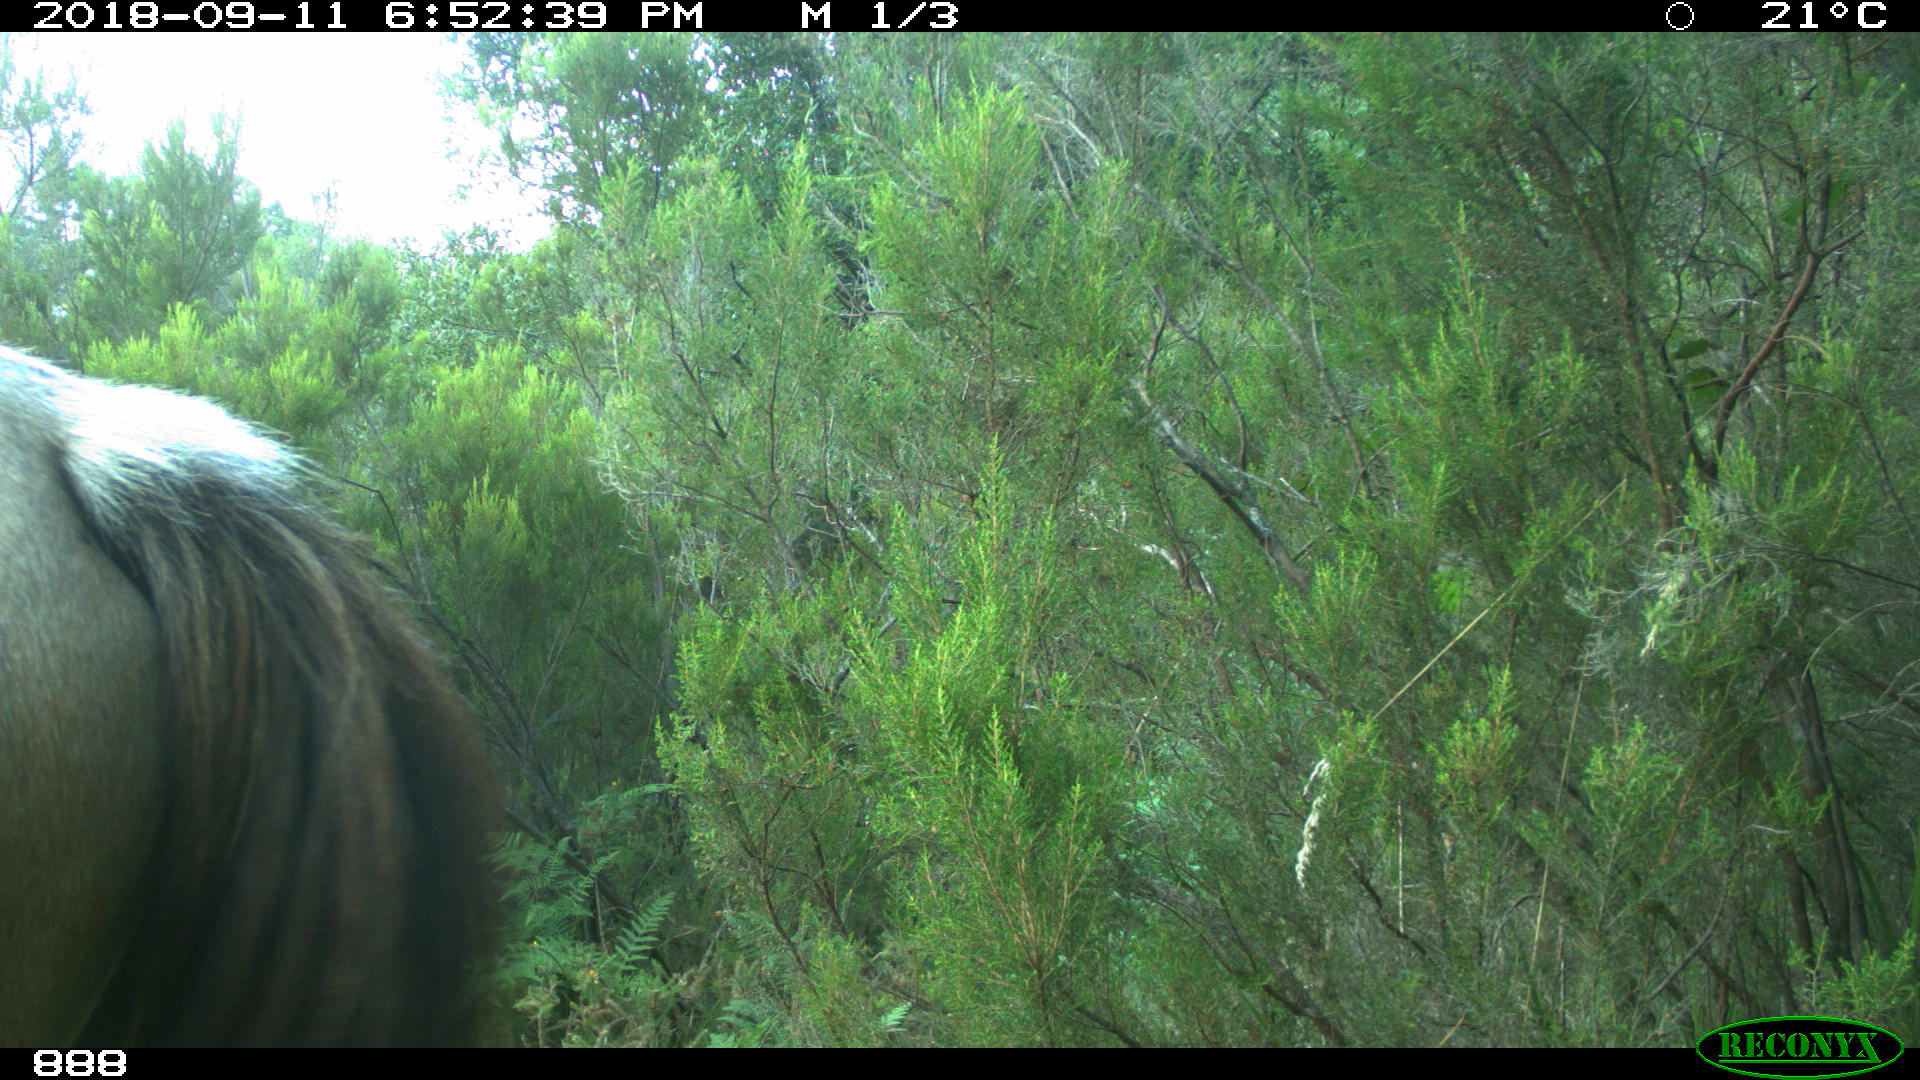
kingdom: Animalia
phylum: Chordata
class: Mammalia
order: Perissodactyla
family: Equidae
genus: Equus
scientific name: Equus caballus
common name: Horse
